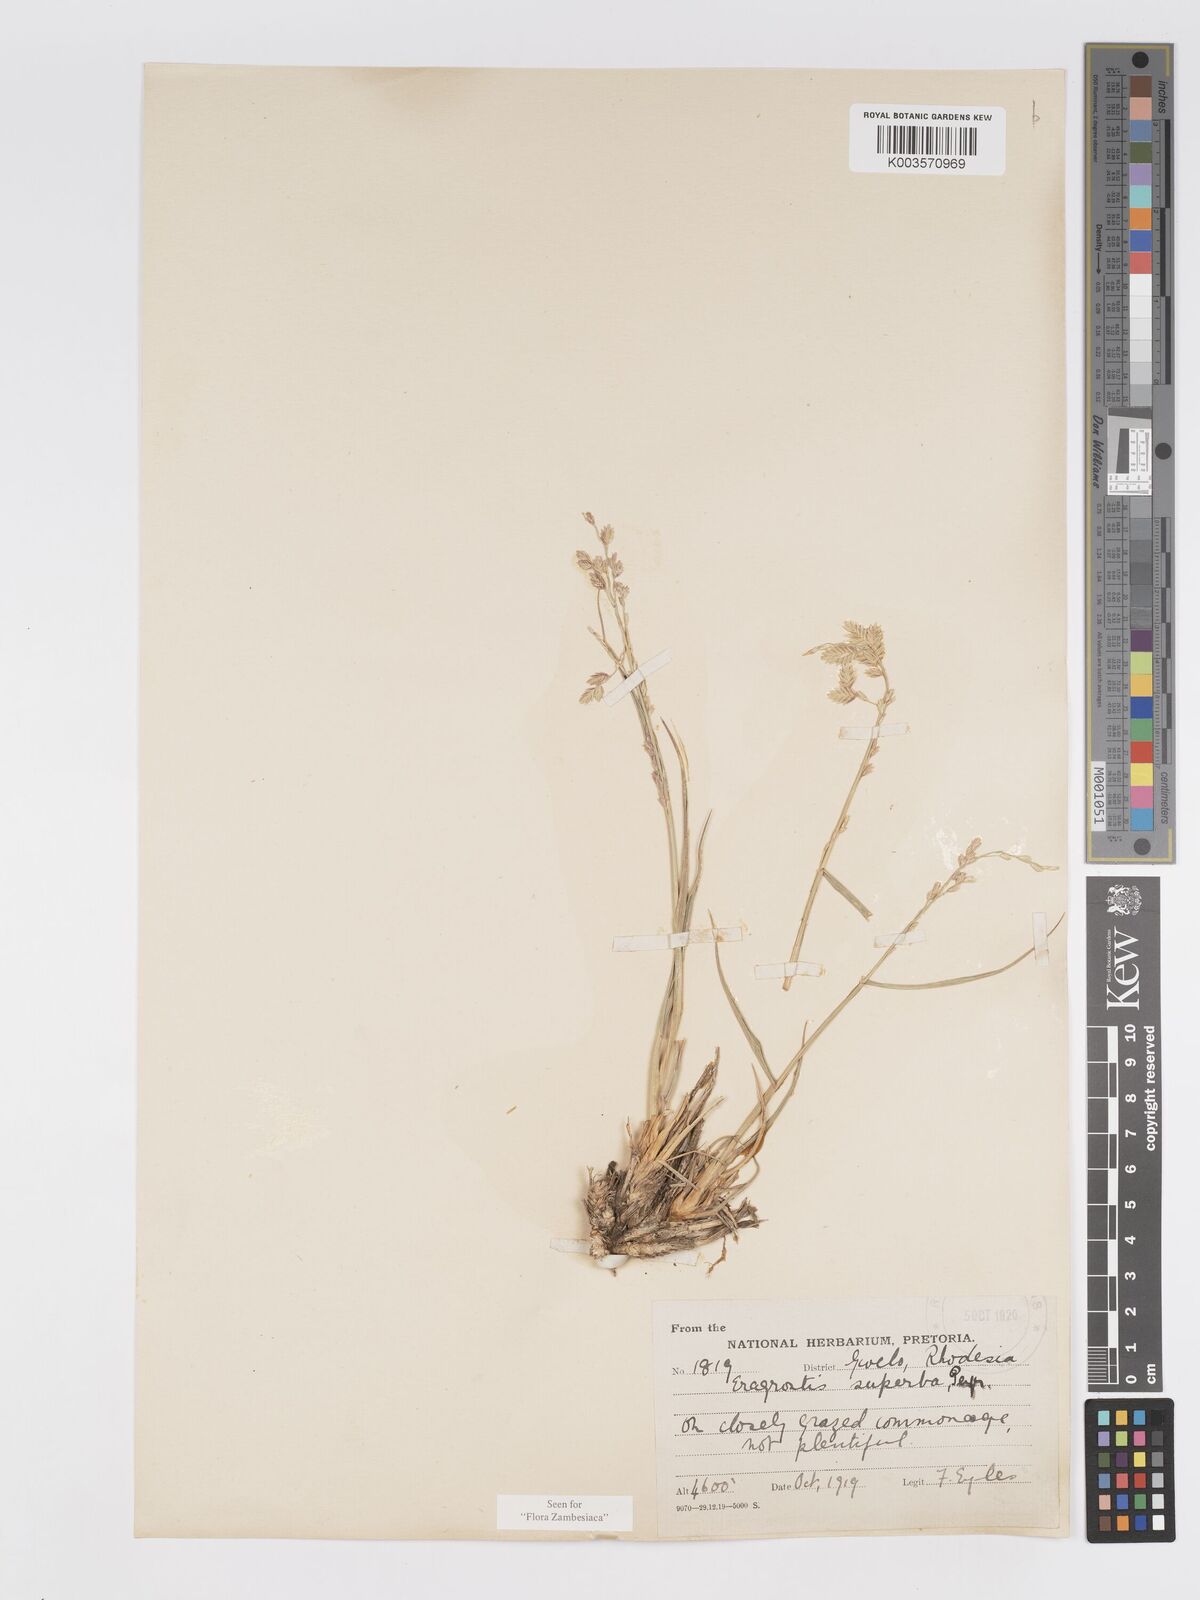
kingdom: Plantae
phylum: Tracheophyta
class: Liliopsida
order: Poales
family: Poaceae
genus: Eragrostis
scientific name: Eragrostis superba
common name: Wilman lovegrass
